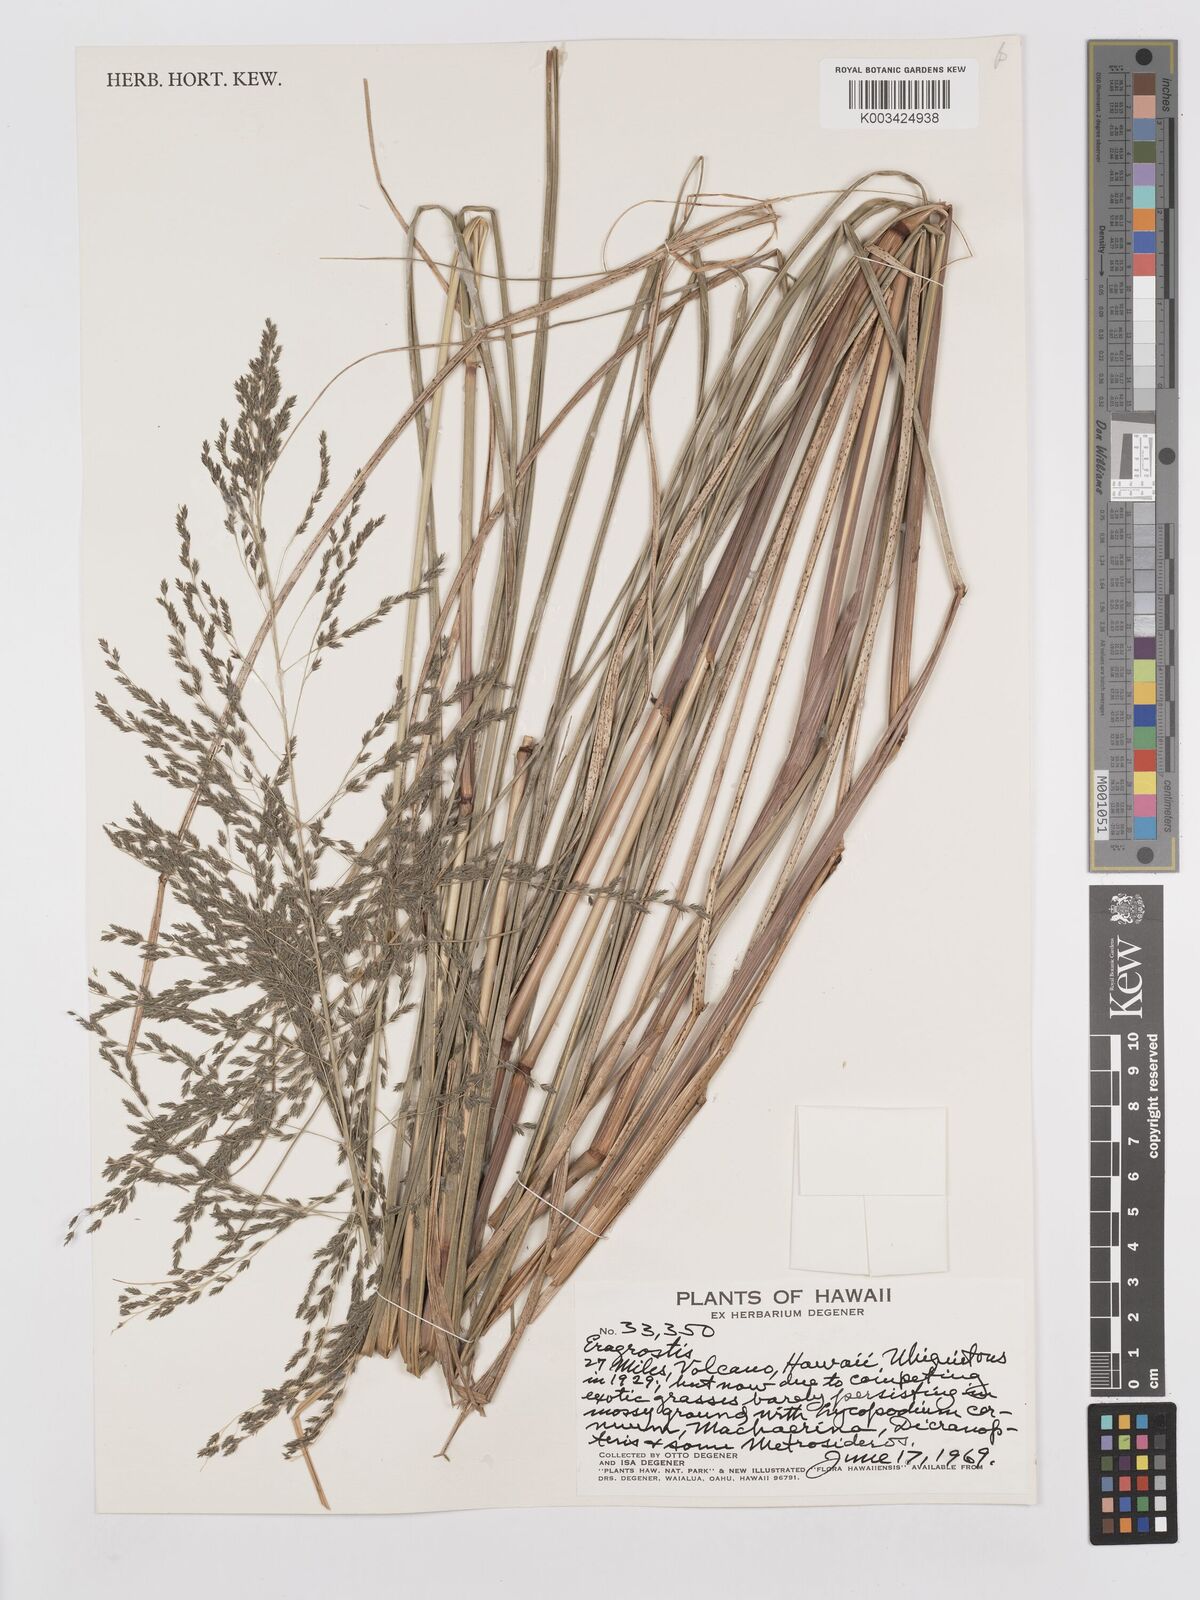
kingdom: Plantae
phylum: Tracheophyta
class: Liliopsida
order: Poales
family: Poaceae
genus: Eragrostis
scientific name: Eragrostis grandis
